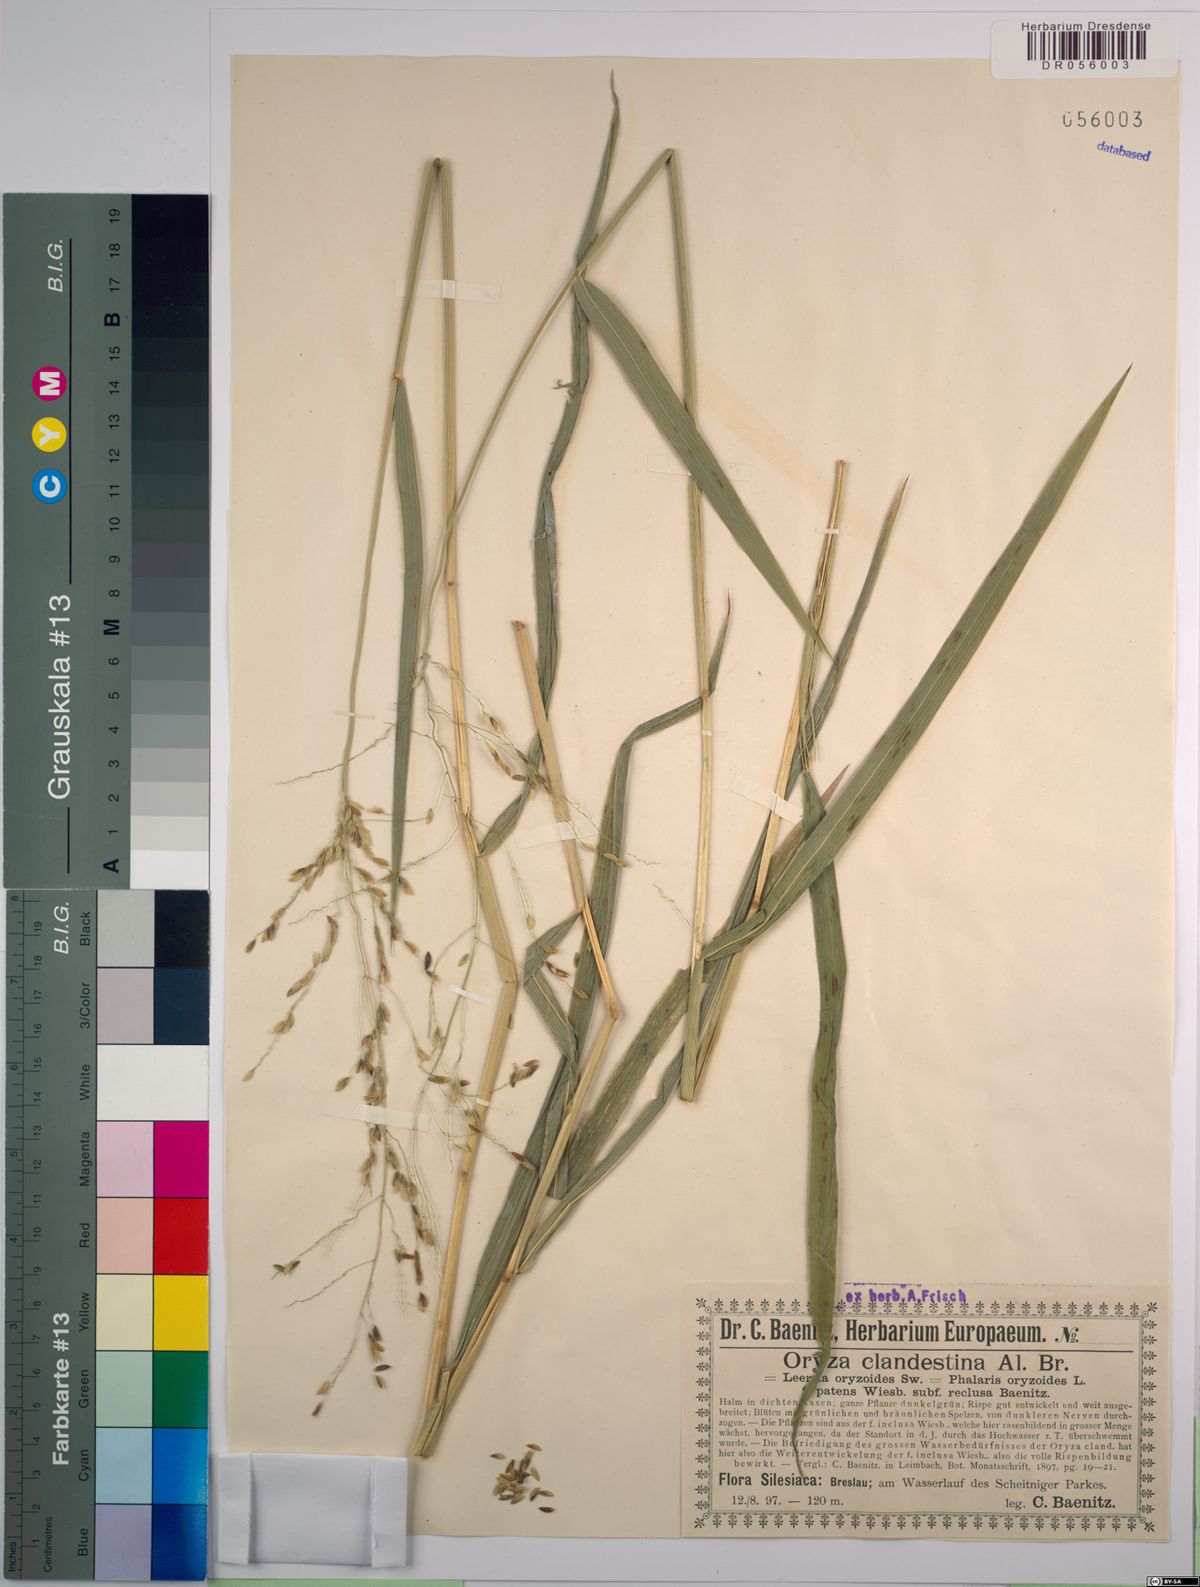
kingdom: Plantae
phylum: Tracheophyta
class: Liliopsida
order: Poales
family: Poaceae
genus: Leersia
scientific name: Leersia oryzoides
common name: Cut-grass
